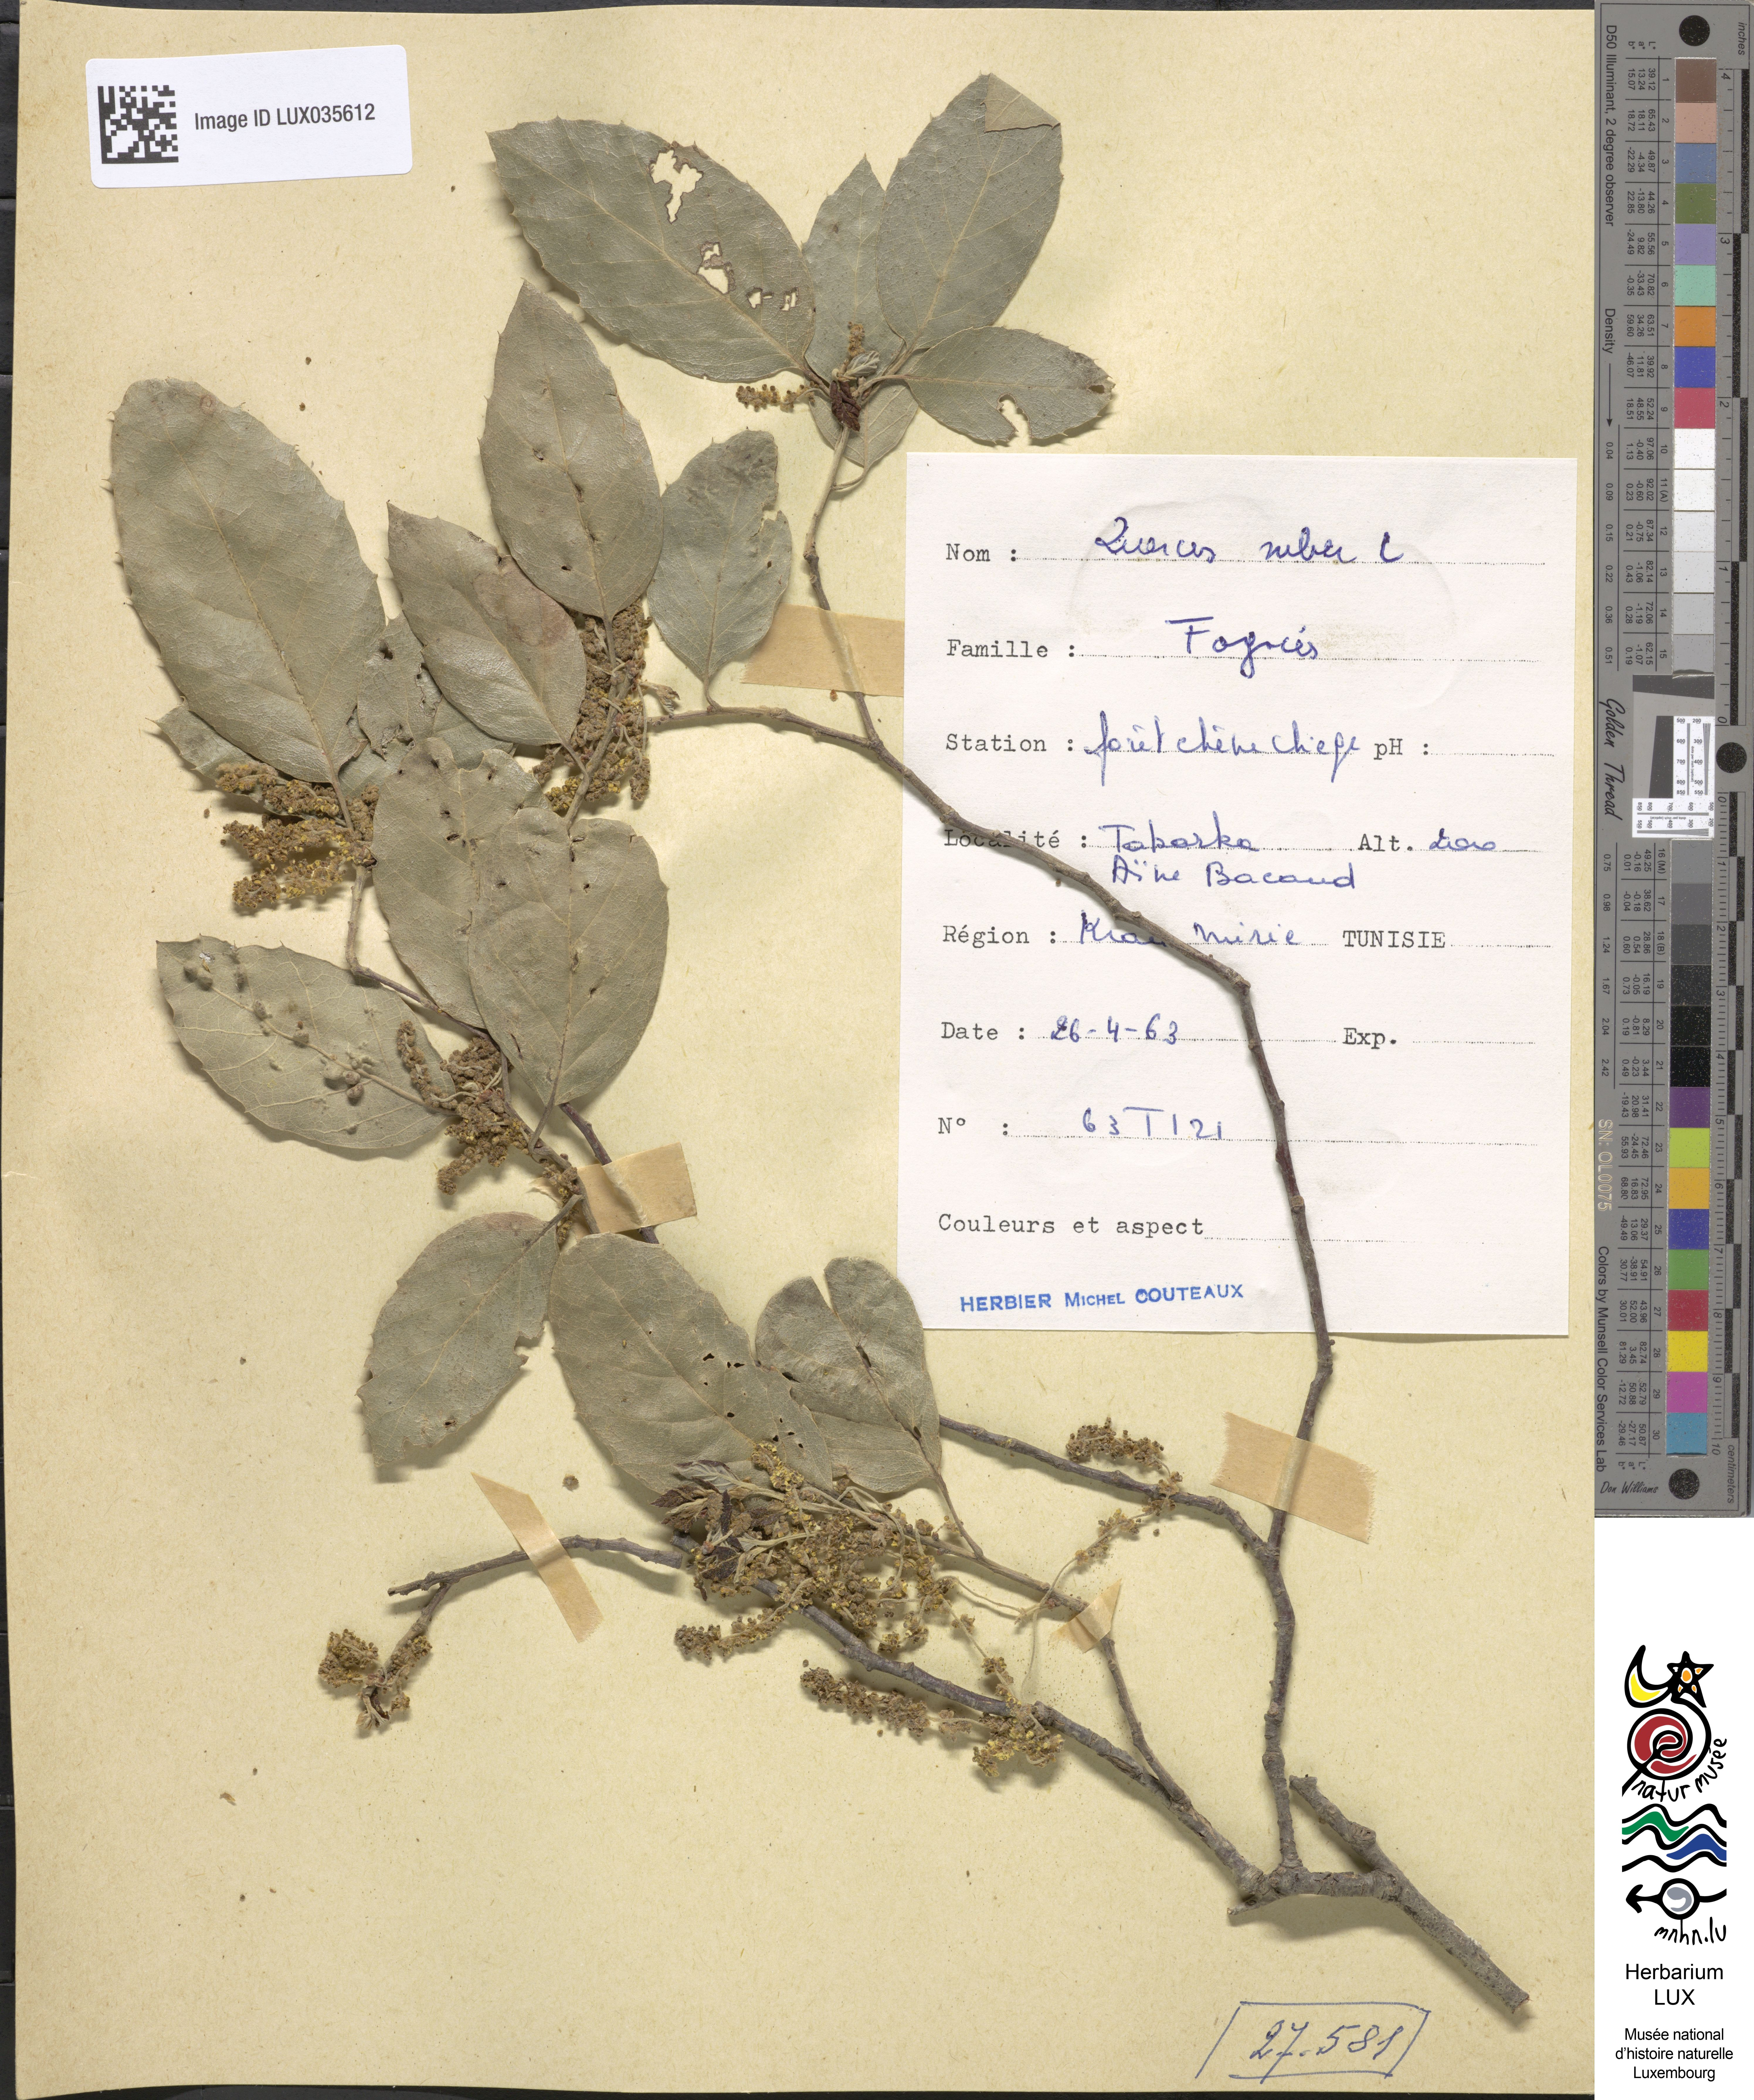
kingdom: Plantae
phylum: Tracheophyta
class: Magnoliopsida
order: Fagales
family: Fagaceae
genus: Quercus
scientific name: Quercus suber
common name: Cork oak
